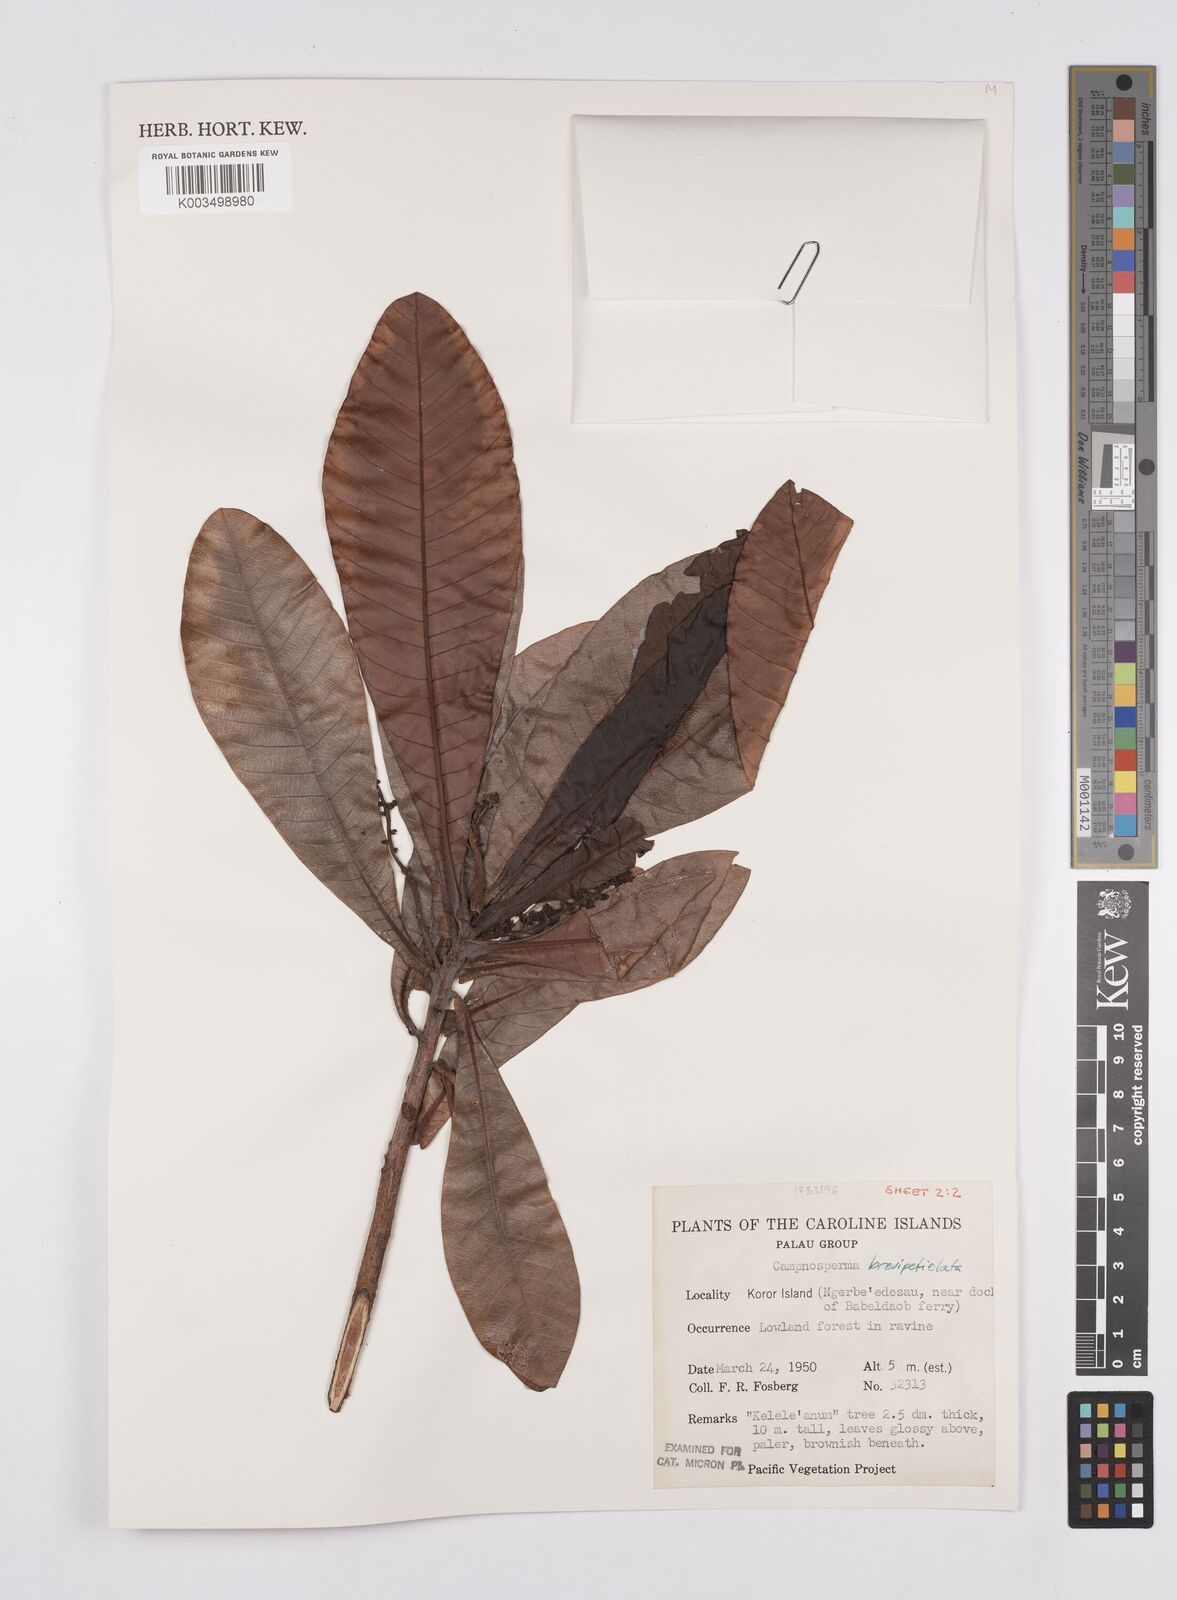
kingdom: Plantae
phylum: Tracheophyta
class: Magnoliopsida
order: Sapindales
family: Anacardiaceae
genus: Campnosperma
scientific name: Campnosperma brevipetiolatum
